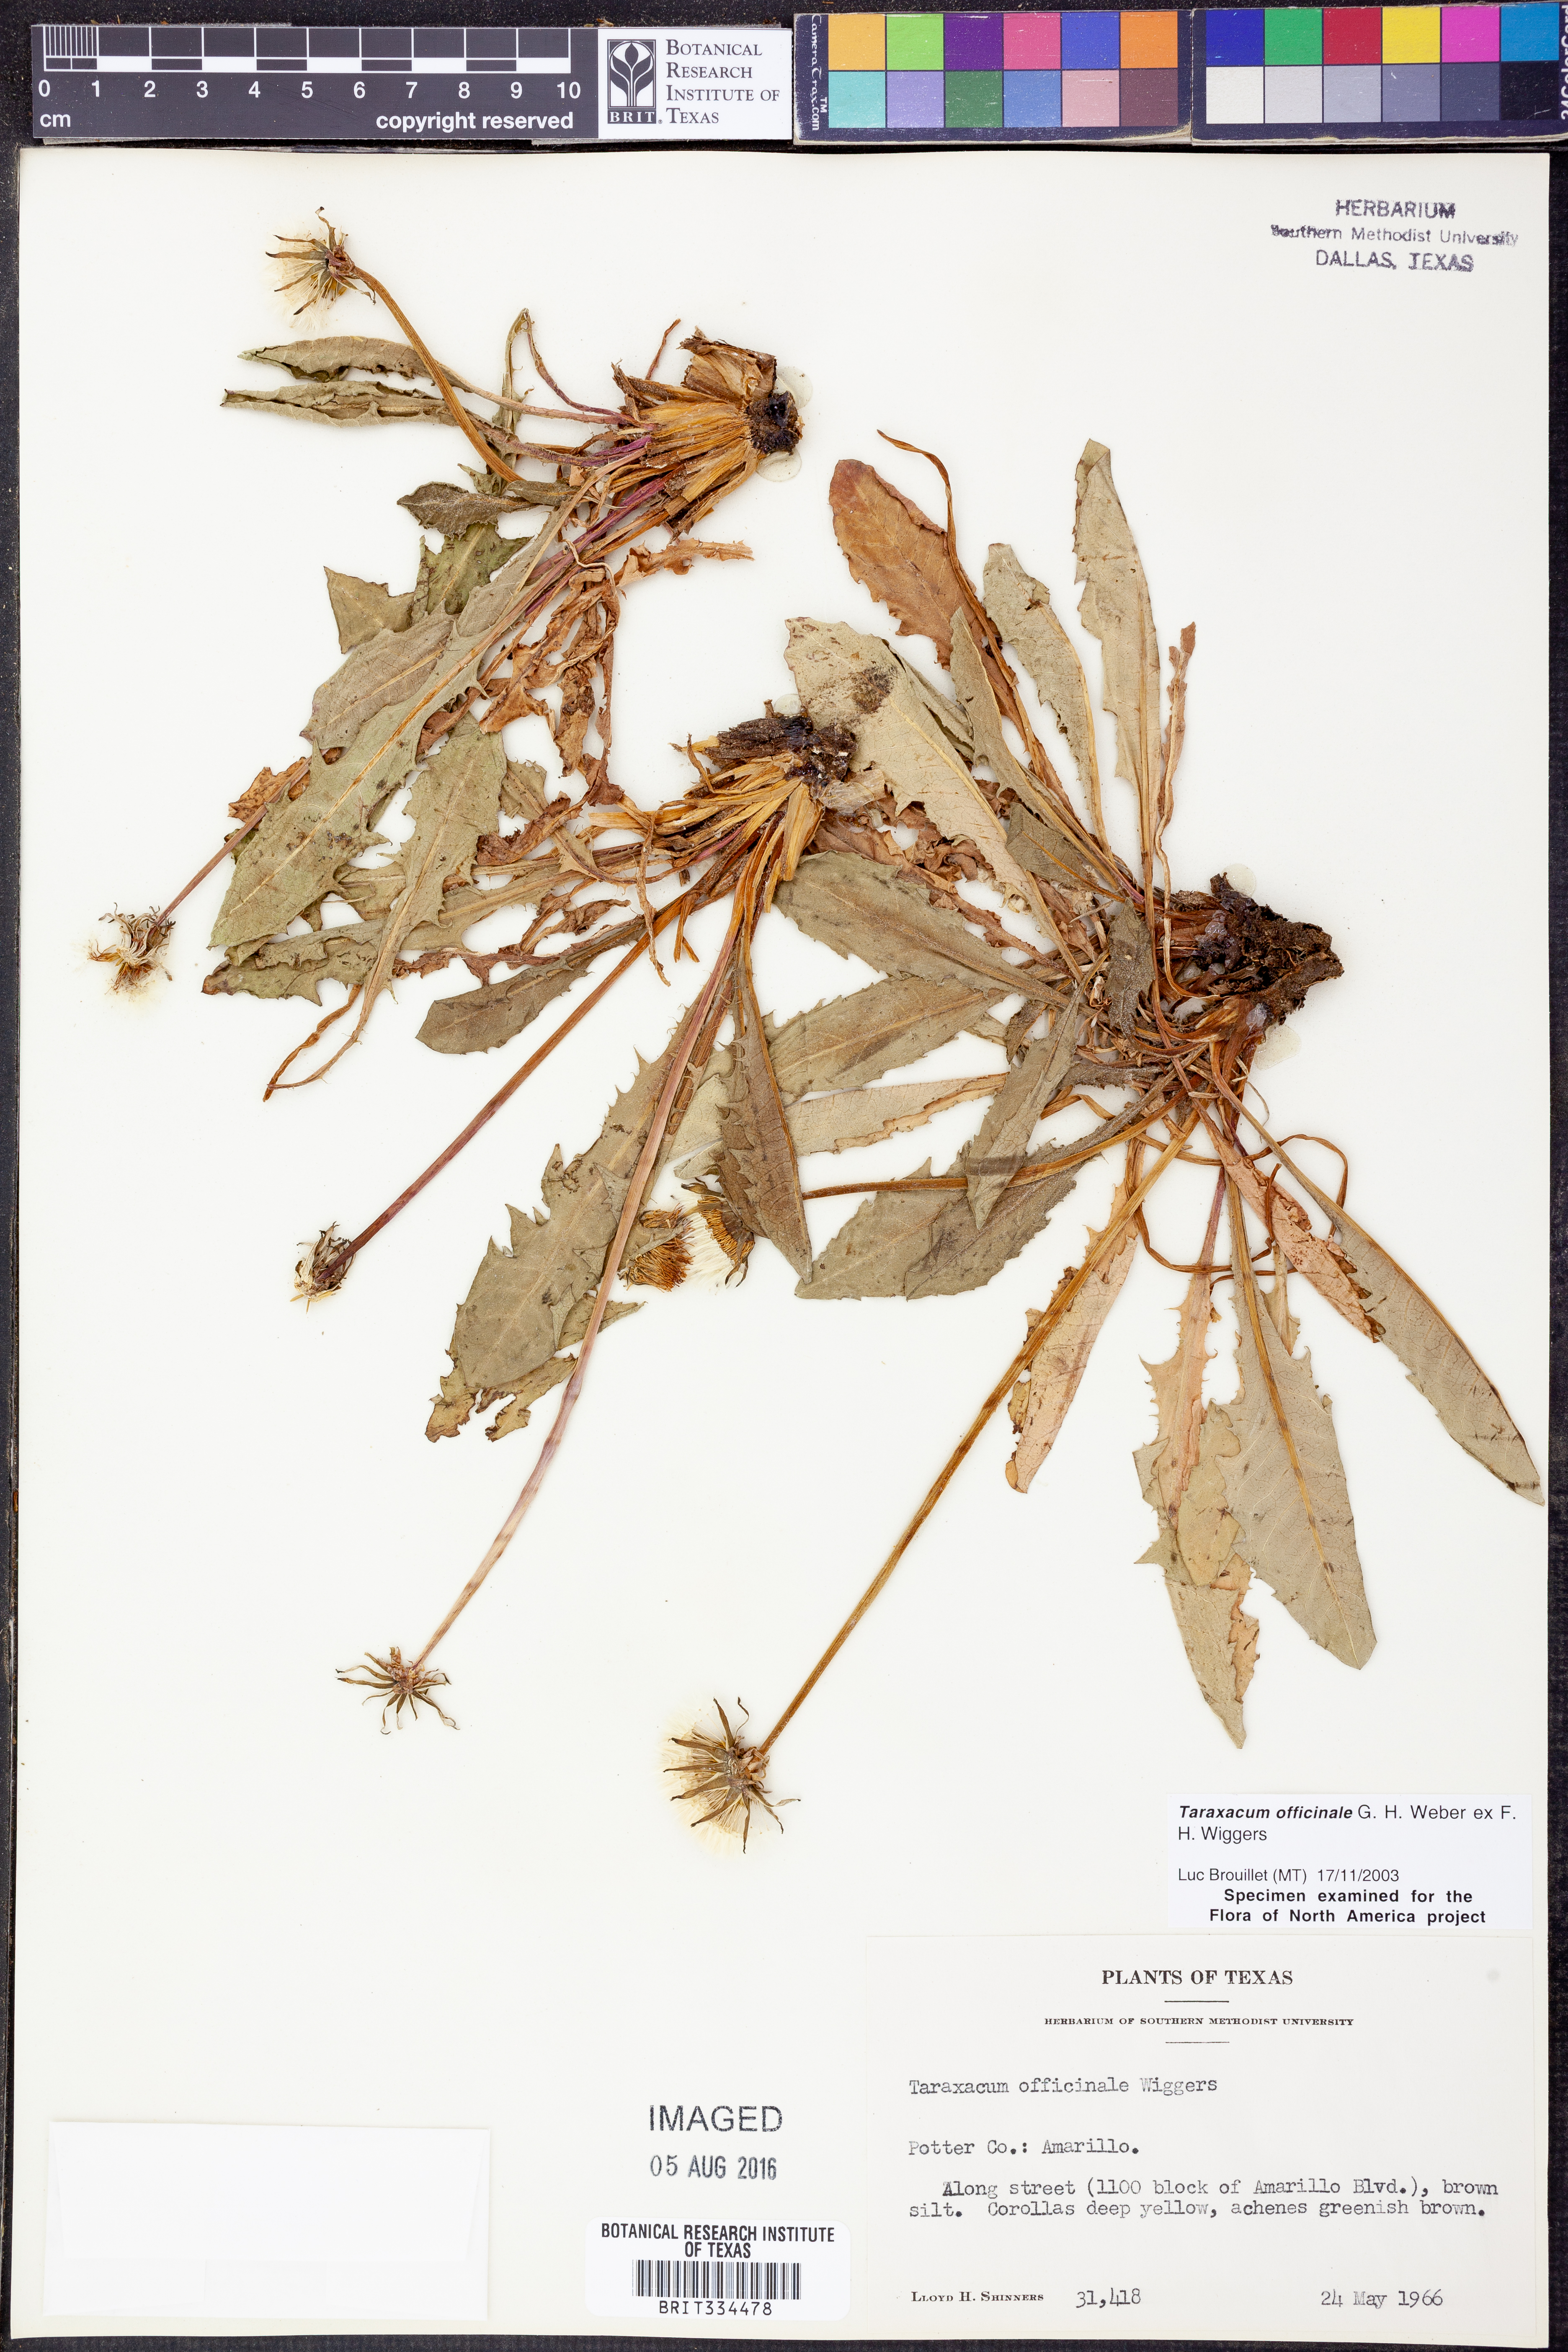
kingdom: Plantae
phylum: Tracheophyta
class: Magnoliopsida
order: Asterales
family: Asteraceae
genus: Taraxacum
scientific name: Taraxacum officinale
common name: Common dandelion
